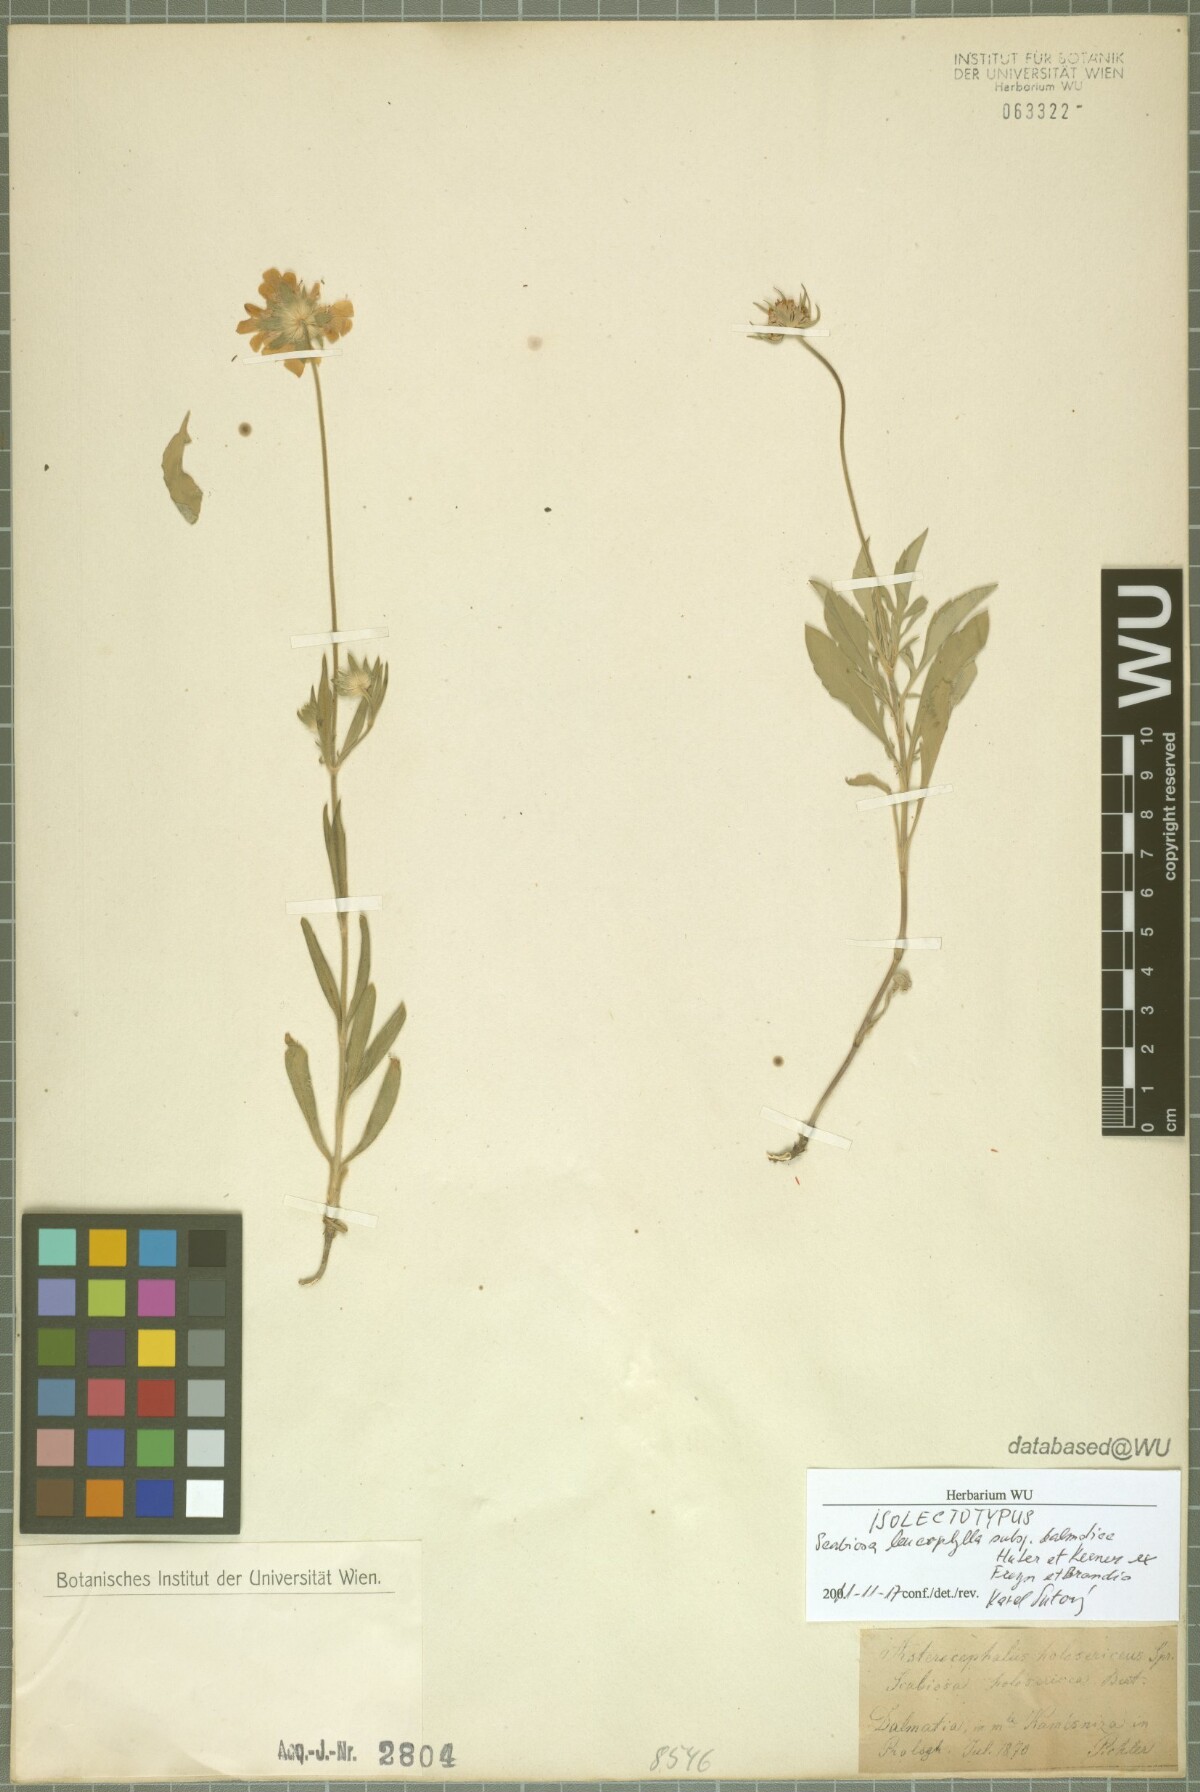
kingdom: Plantae
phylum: Tracheophyta
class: Magnoliopsida
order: Dipsacales
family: Caprifoliaceae
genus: Scabiosa
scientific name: Scabiosa cinerea
